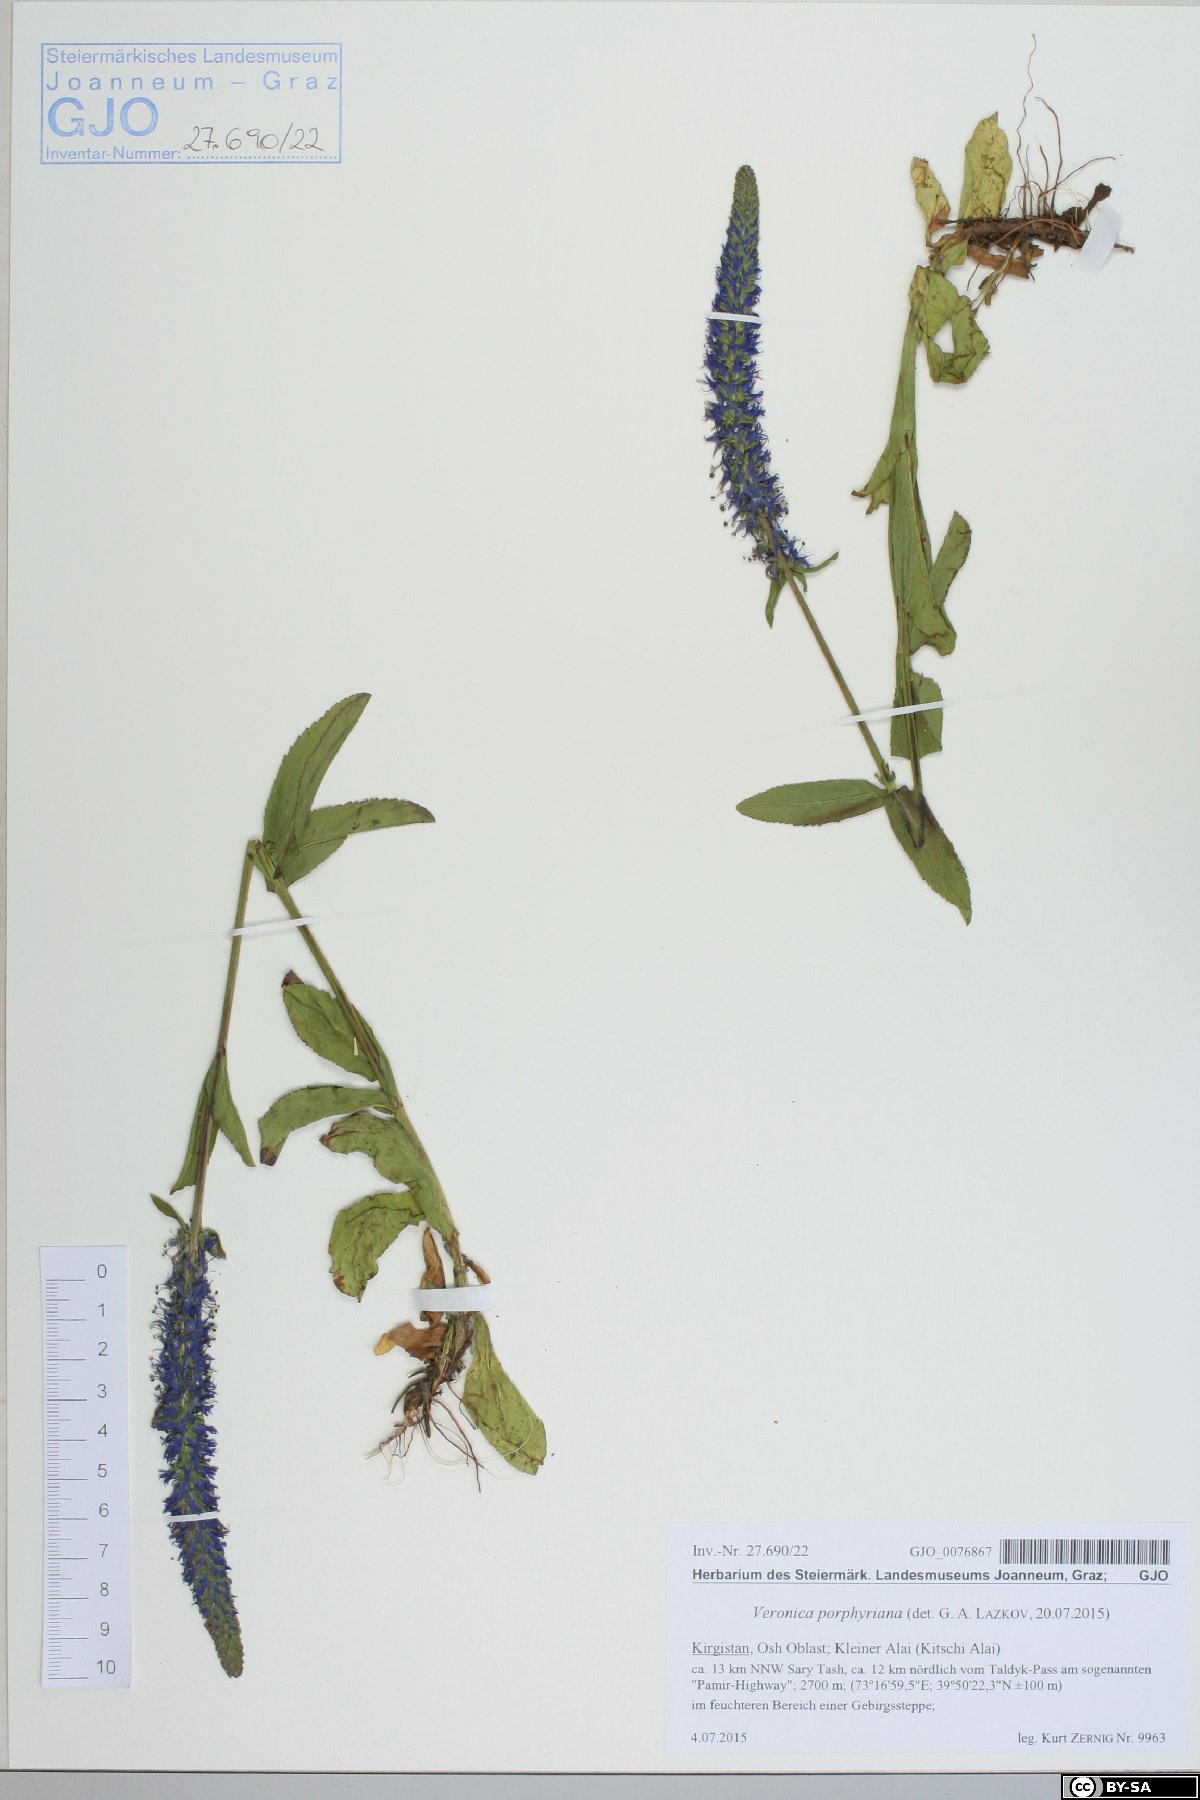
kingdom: Plantae
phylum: Tracheophyta
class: Magnoliopsida
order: Lamiales
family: Plantaginaceae
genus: Veronica
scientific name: Veronica porphyriana
